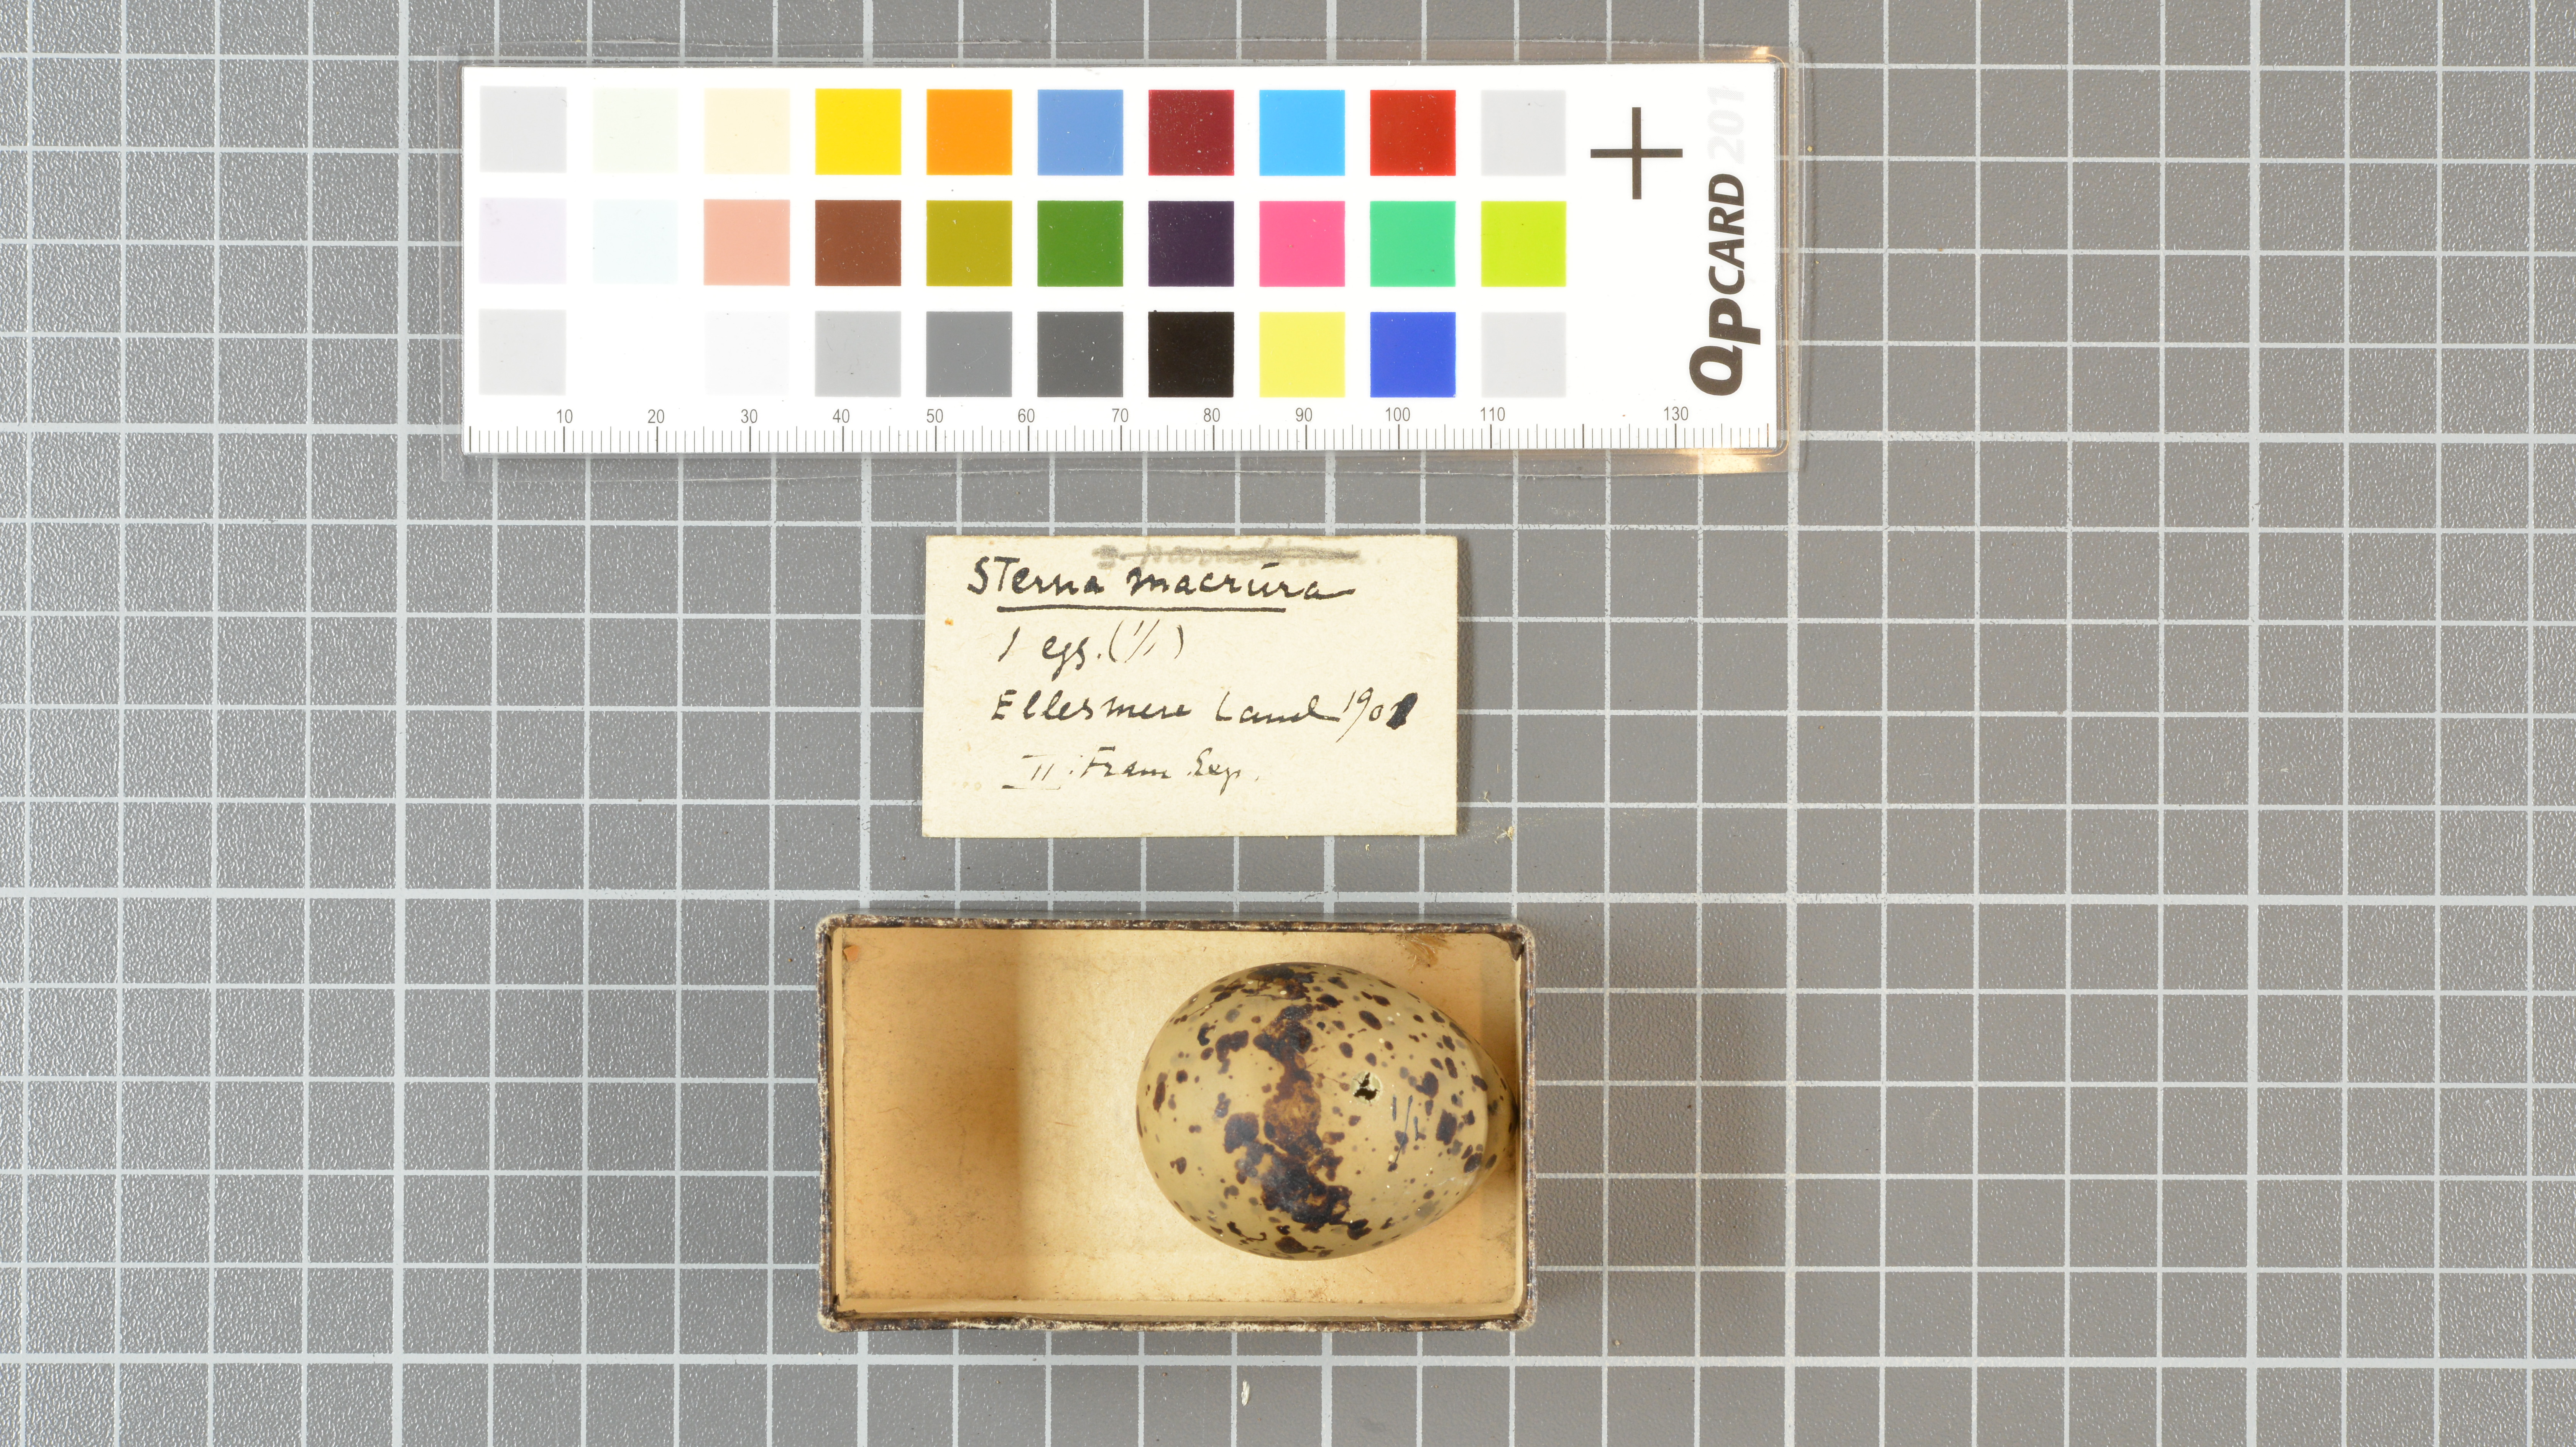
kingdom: Animalia
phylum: Chordata
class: Aves
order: Charadriiformes
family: Laridae
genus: Sterna
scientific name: Sterna paradisaea
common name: Arctic tern
